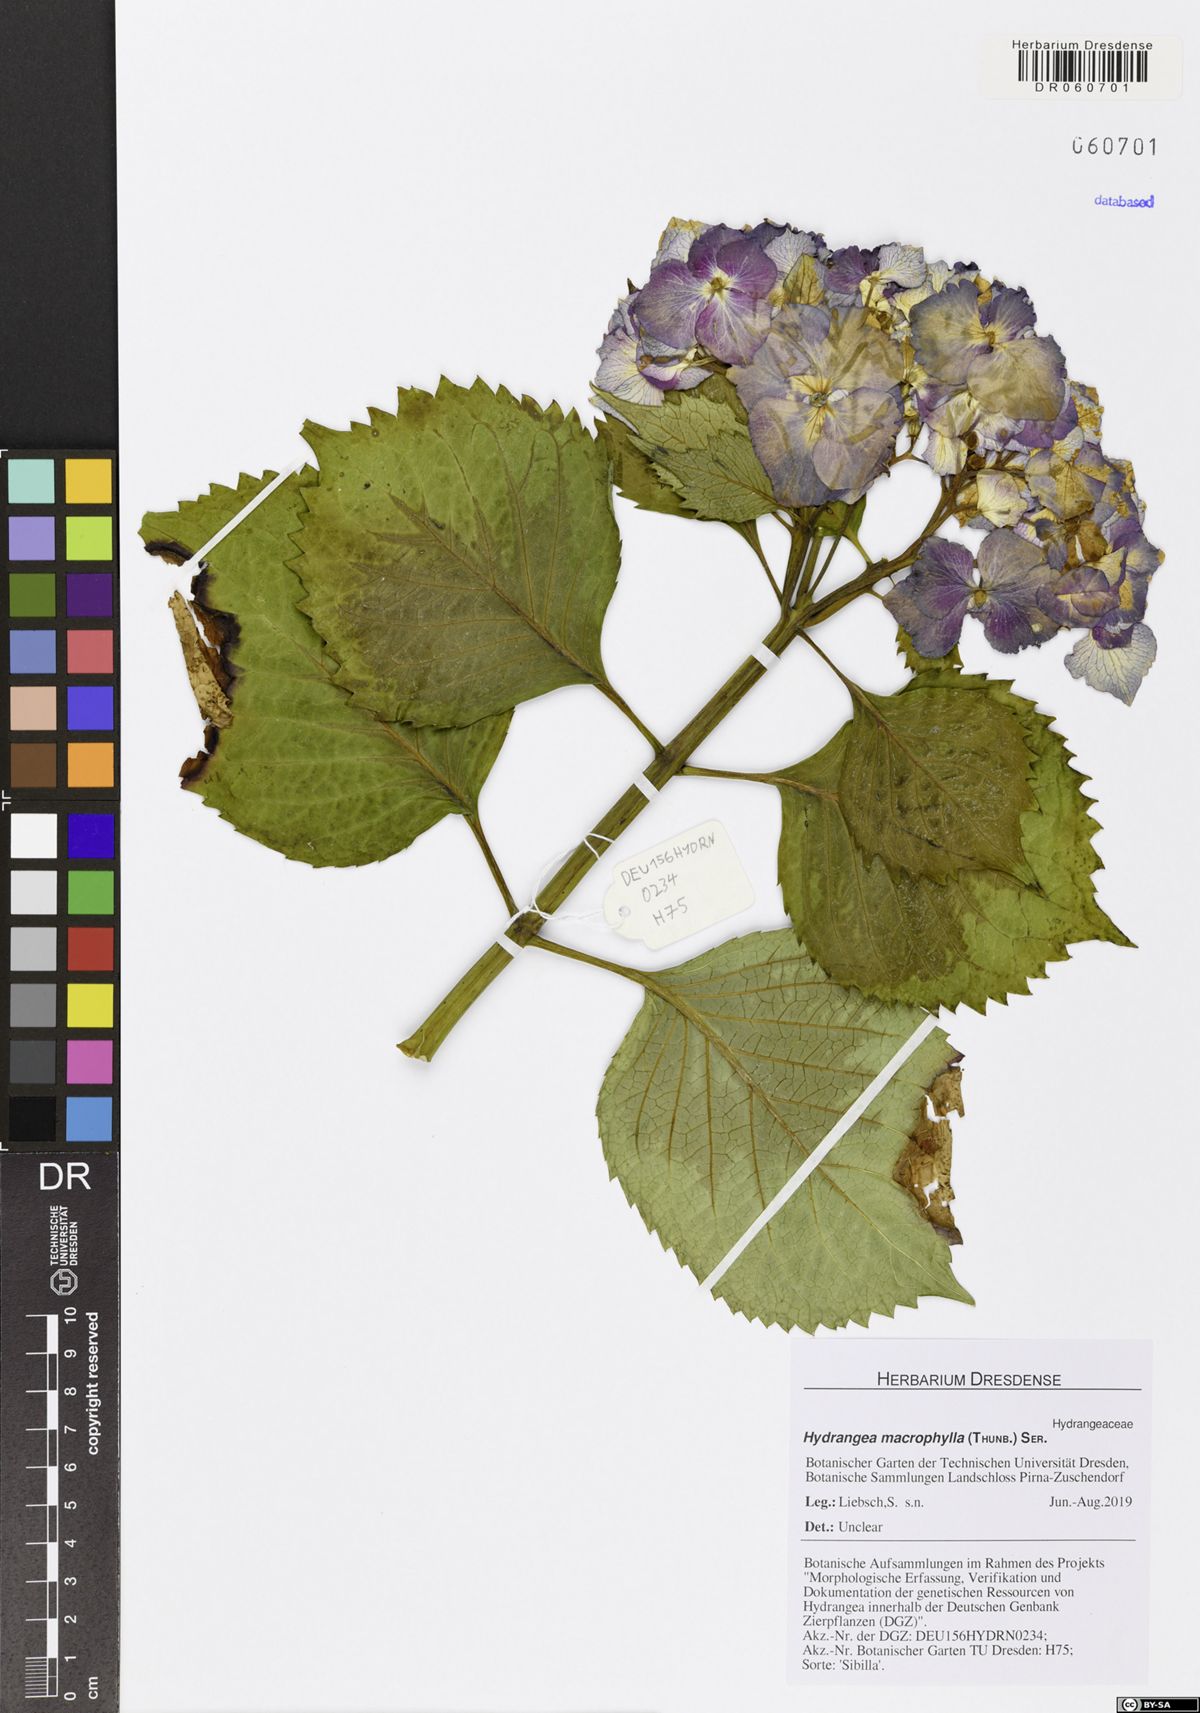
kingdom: Plantae
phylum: Tracheophyta
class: Magnoliopsida
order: Cornales
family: Hydrangeaceae
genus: Hydrangea
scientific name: Hydrangea macrophylla
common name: Hydrangea
